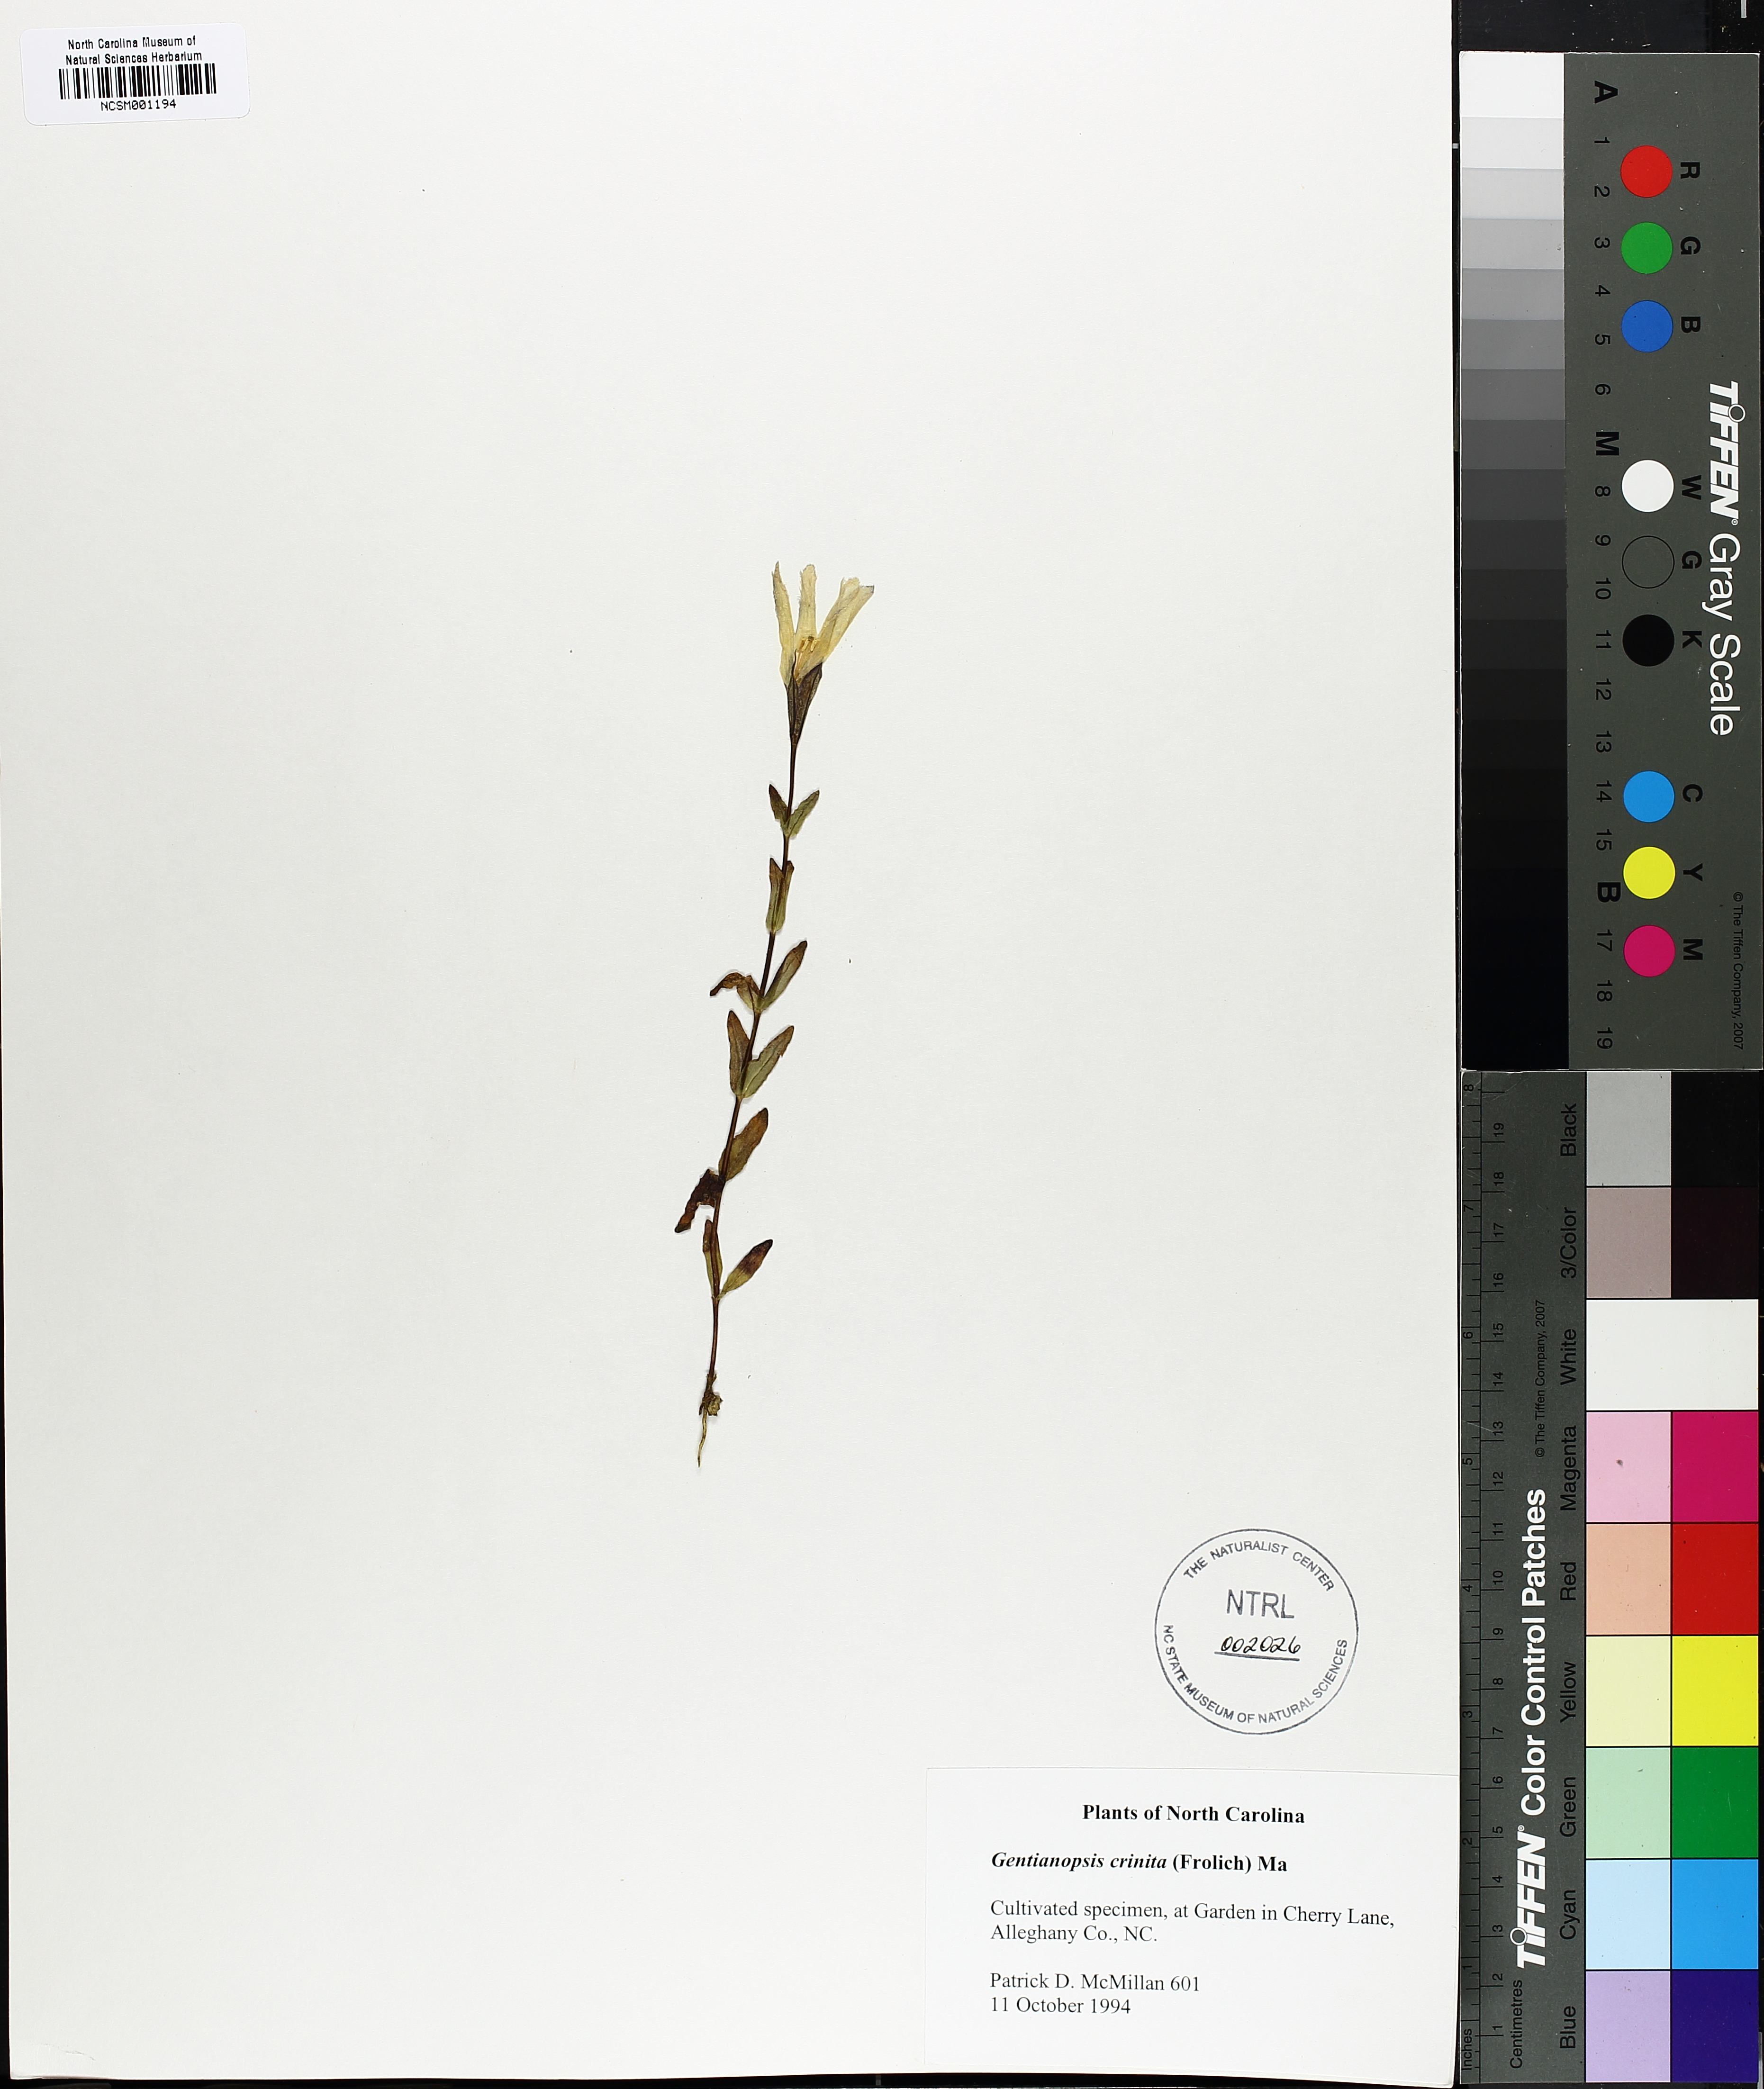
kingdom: Plantae
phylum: Tracheophyta
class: Magnoliopsida
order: Gentianales
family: Gentianaceae
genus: Gentianopsis
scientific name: Gentianopsis crinita
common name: Fringed-gentian
